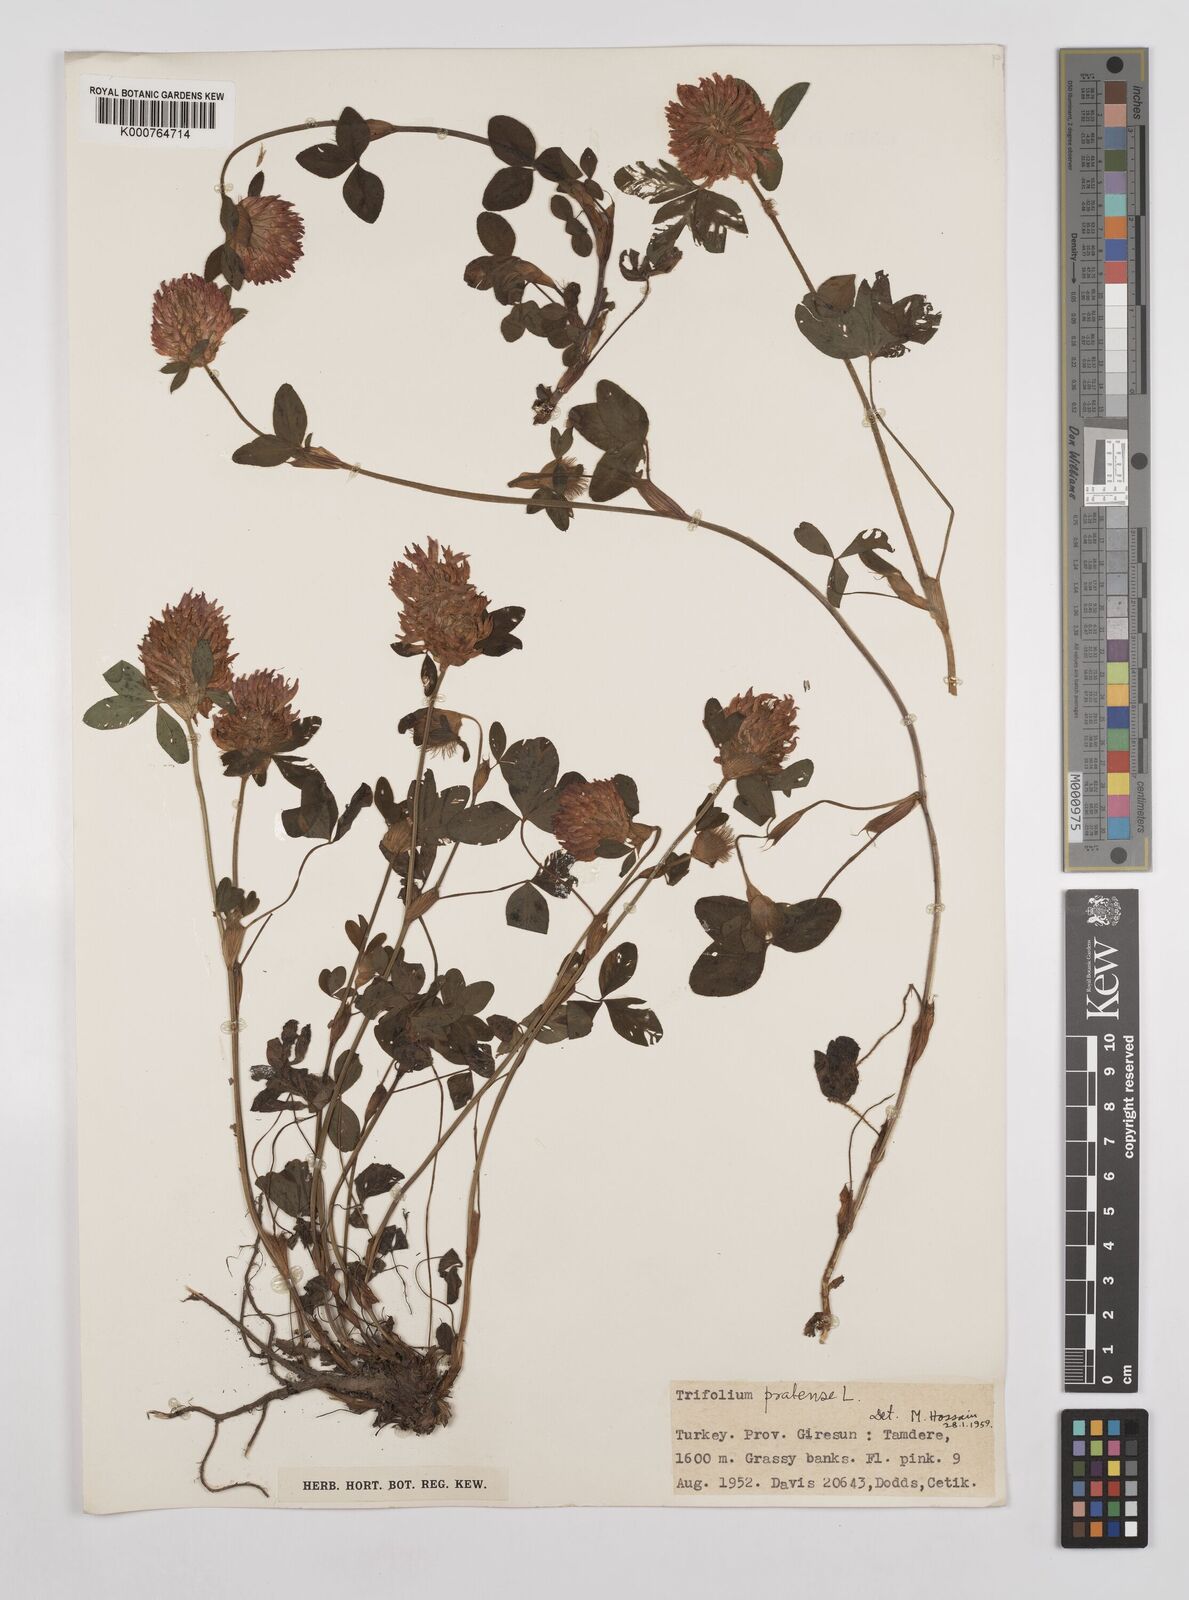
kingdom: Plantae
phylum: Tracheophyta
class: Magnoliopsida
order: Fabales
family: Fabaceae
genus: Trifolium
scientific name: Trifolium pratense
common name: Red clover
